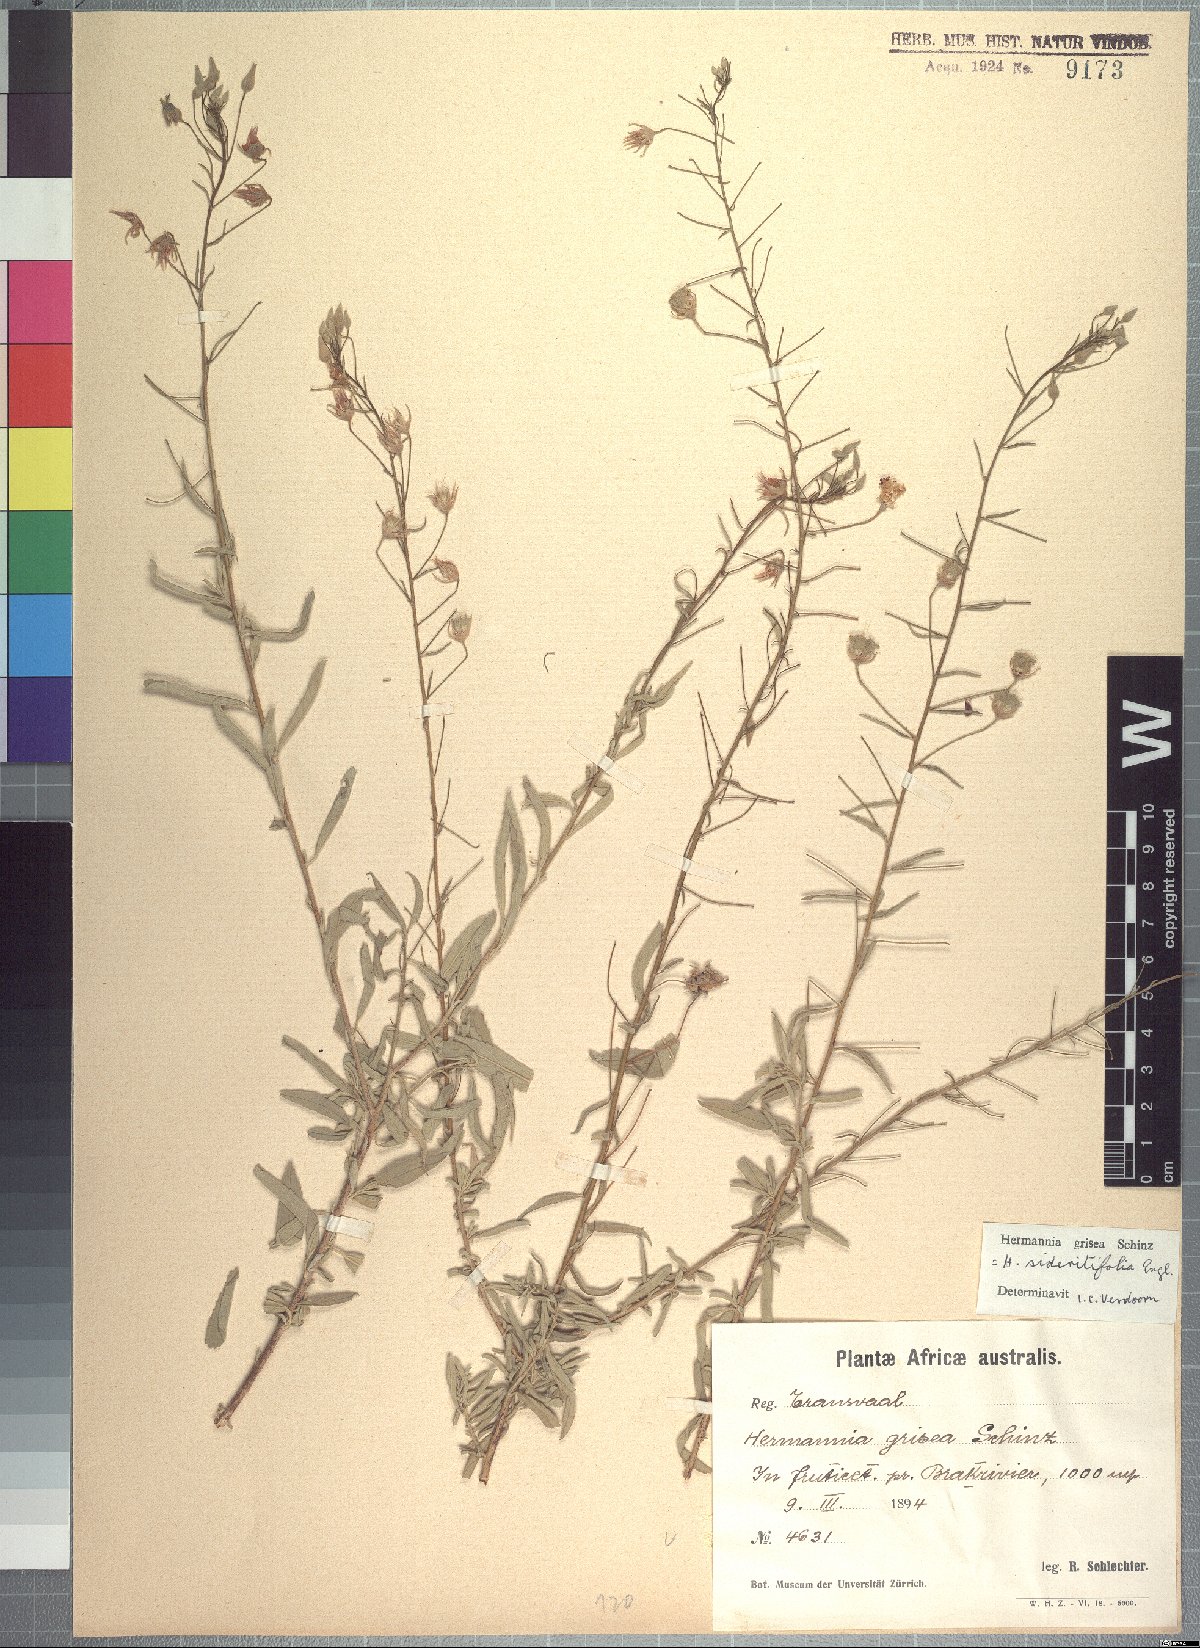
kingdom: Plantae
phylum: Tracheophyta
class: Magnoliopsida
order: Malvales
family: Malvaceae
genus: Hermannia
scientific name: Hermannia grisea
